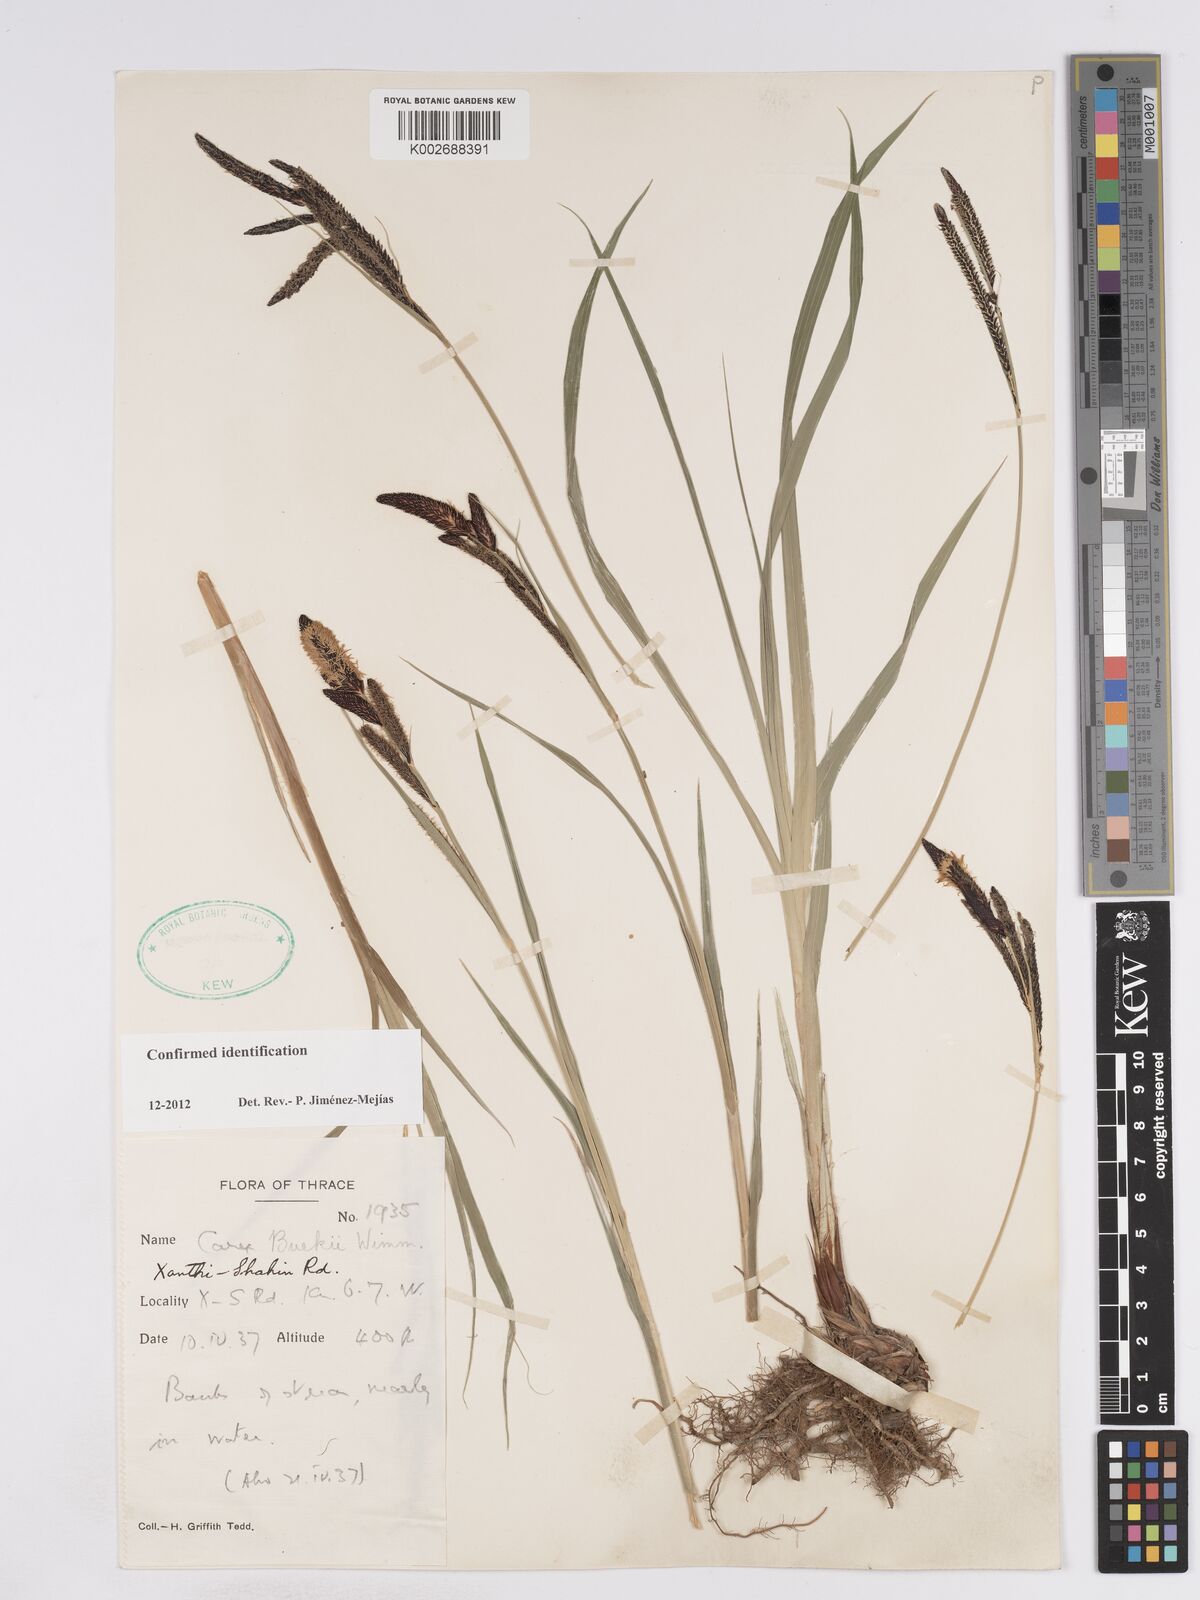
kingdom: Plantae
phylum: Tracheophyta
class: Liliopsida
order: Poales
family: Cyperaceae
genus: Carex
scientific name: Carex buekii
